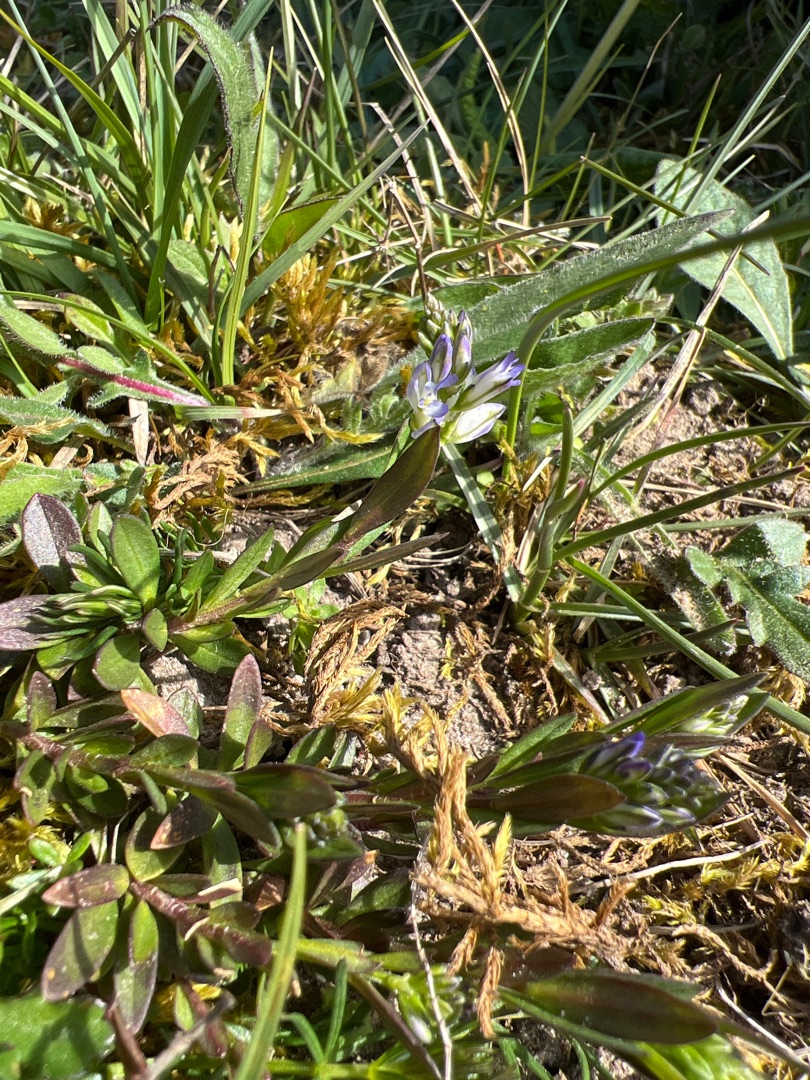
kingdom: Plantae
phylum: Tracheophyta
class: Magnoliopsida
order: Fabales
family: Polygalaceae
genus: Polygala
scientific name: Polygala vulgaris
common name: Almindelig mælkeurt
